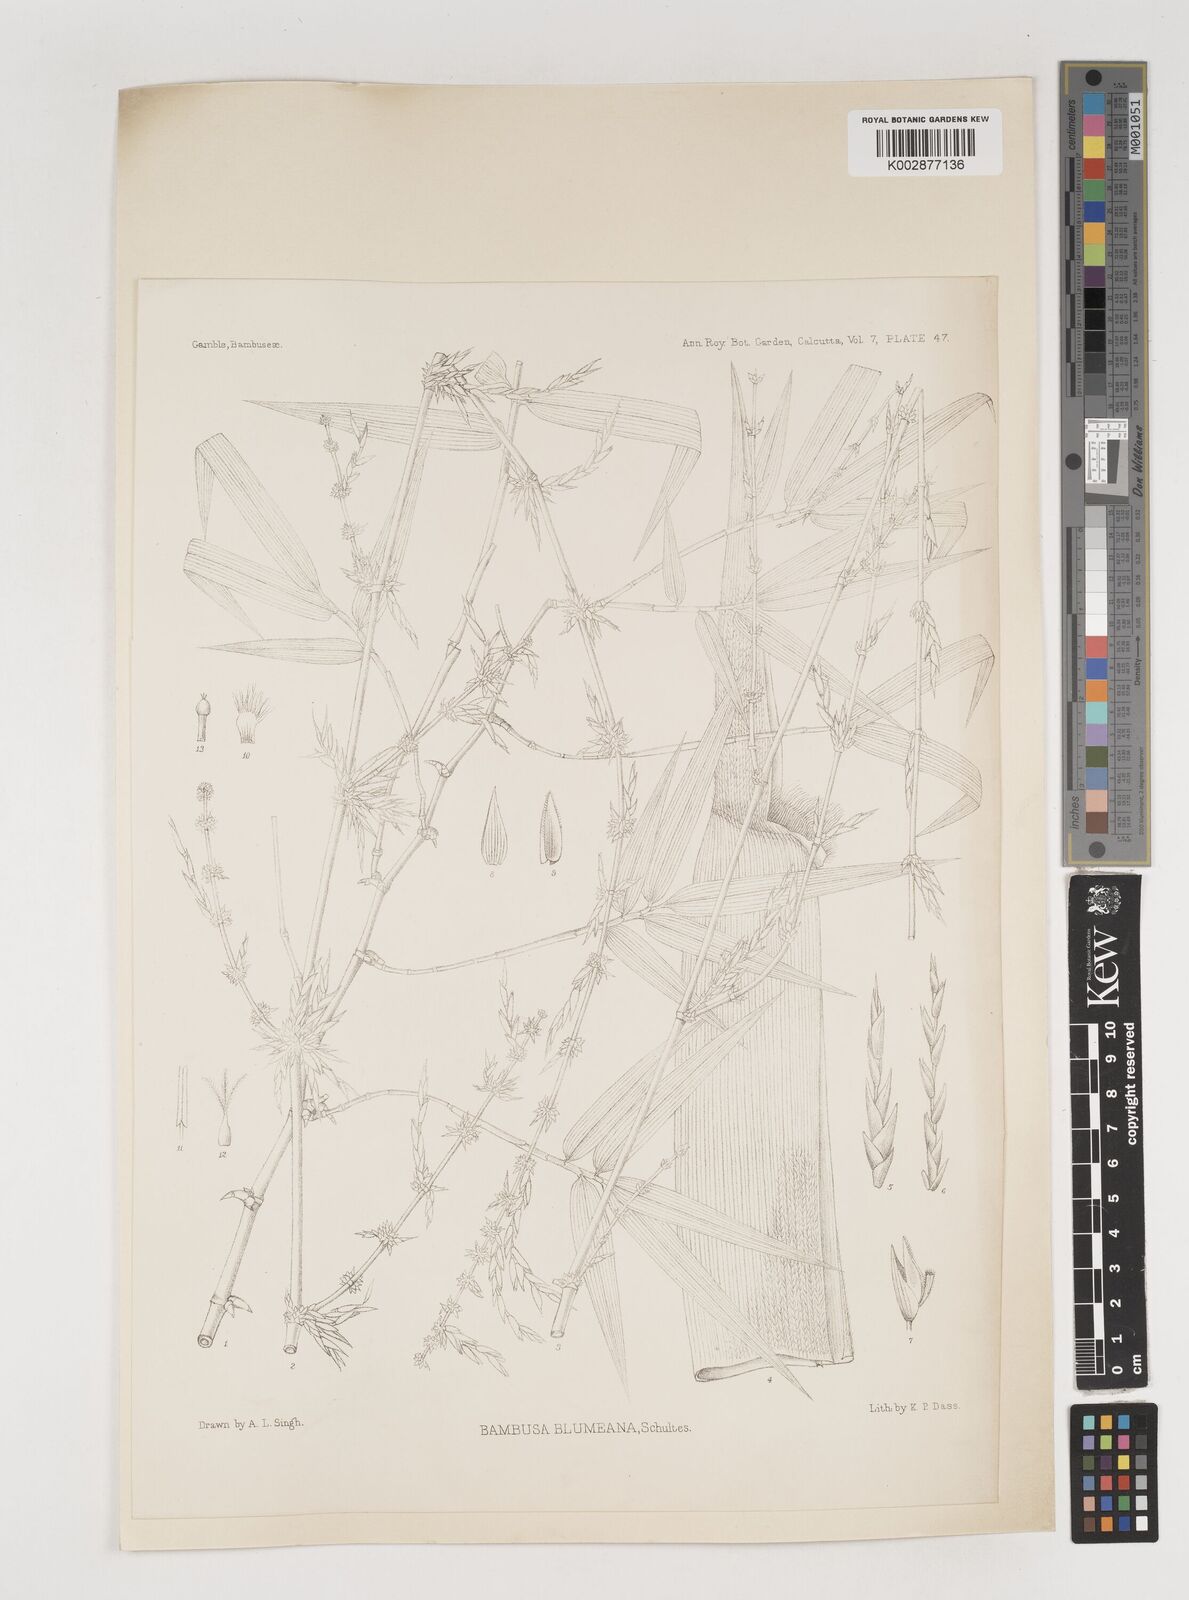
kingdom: Plantae
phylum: Tracheophyta
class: Liliopsida
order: Poales
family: Poaceae
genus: Bambusa
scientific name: Bambusa spinosa
